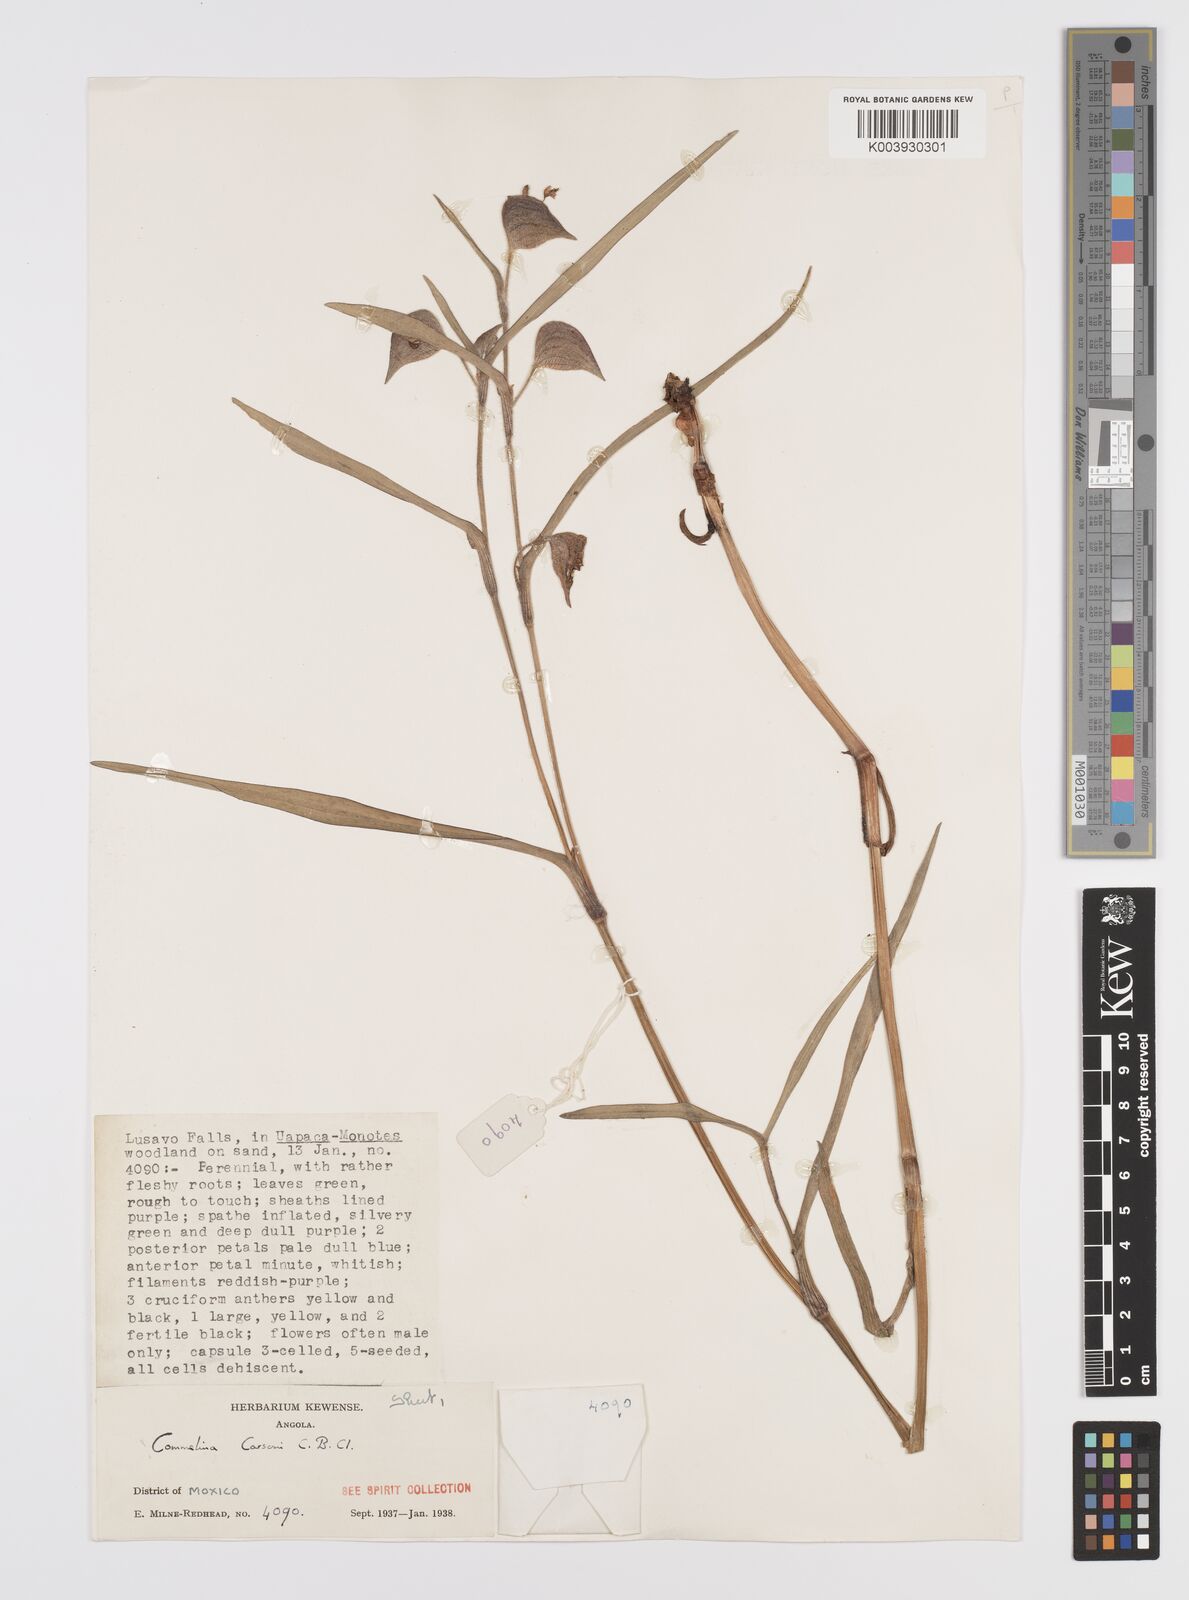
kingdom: Plantae
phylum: Tracheophyta
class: Liliopsida
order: Commelinales
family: Commelinaceae
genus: Commelina
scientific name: Commelina schweinfurthii
